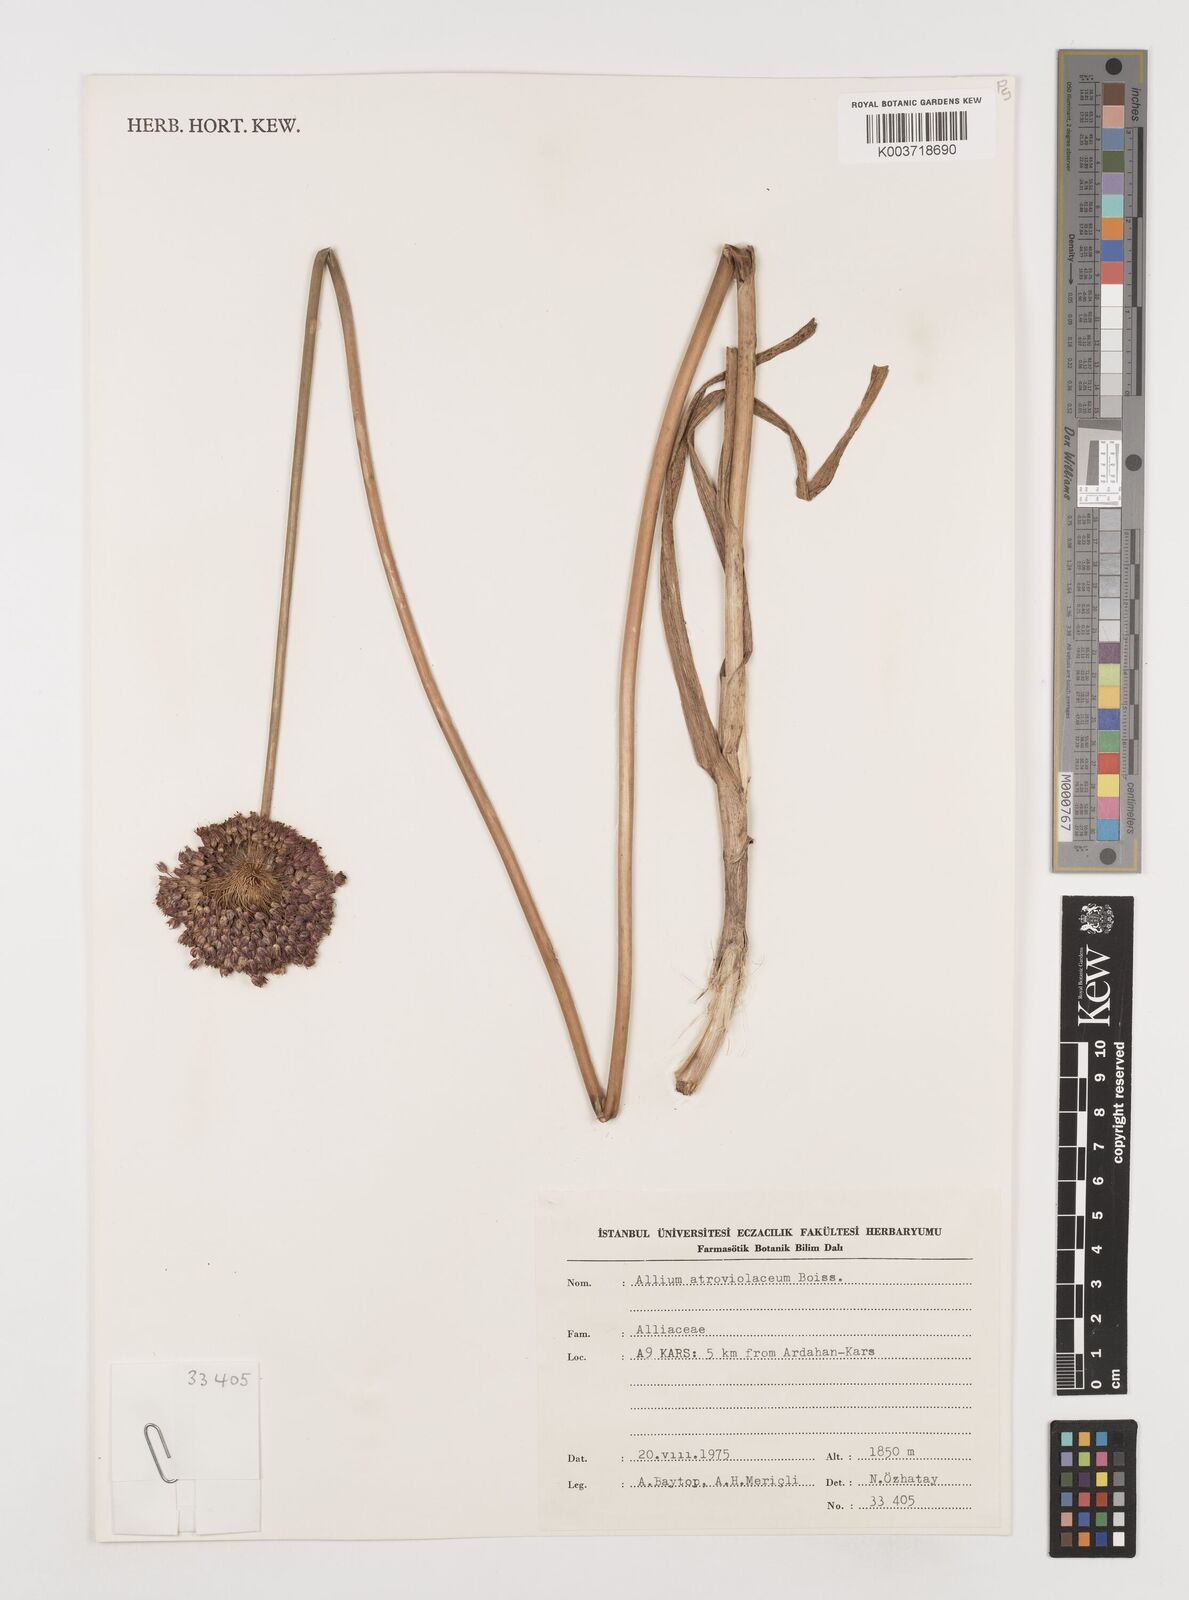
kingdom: Plantae
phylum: Tracheophyta
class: Liliopsida
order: Asparagales
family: Amaryllidaceae
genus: Allium
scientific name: Allium atroviolaceum
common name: Broadleaf wild leek
